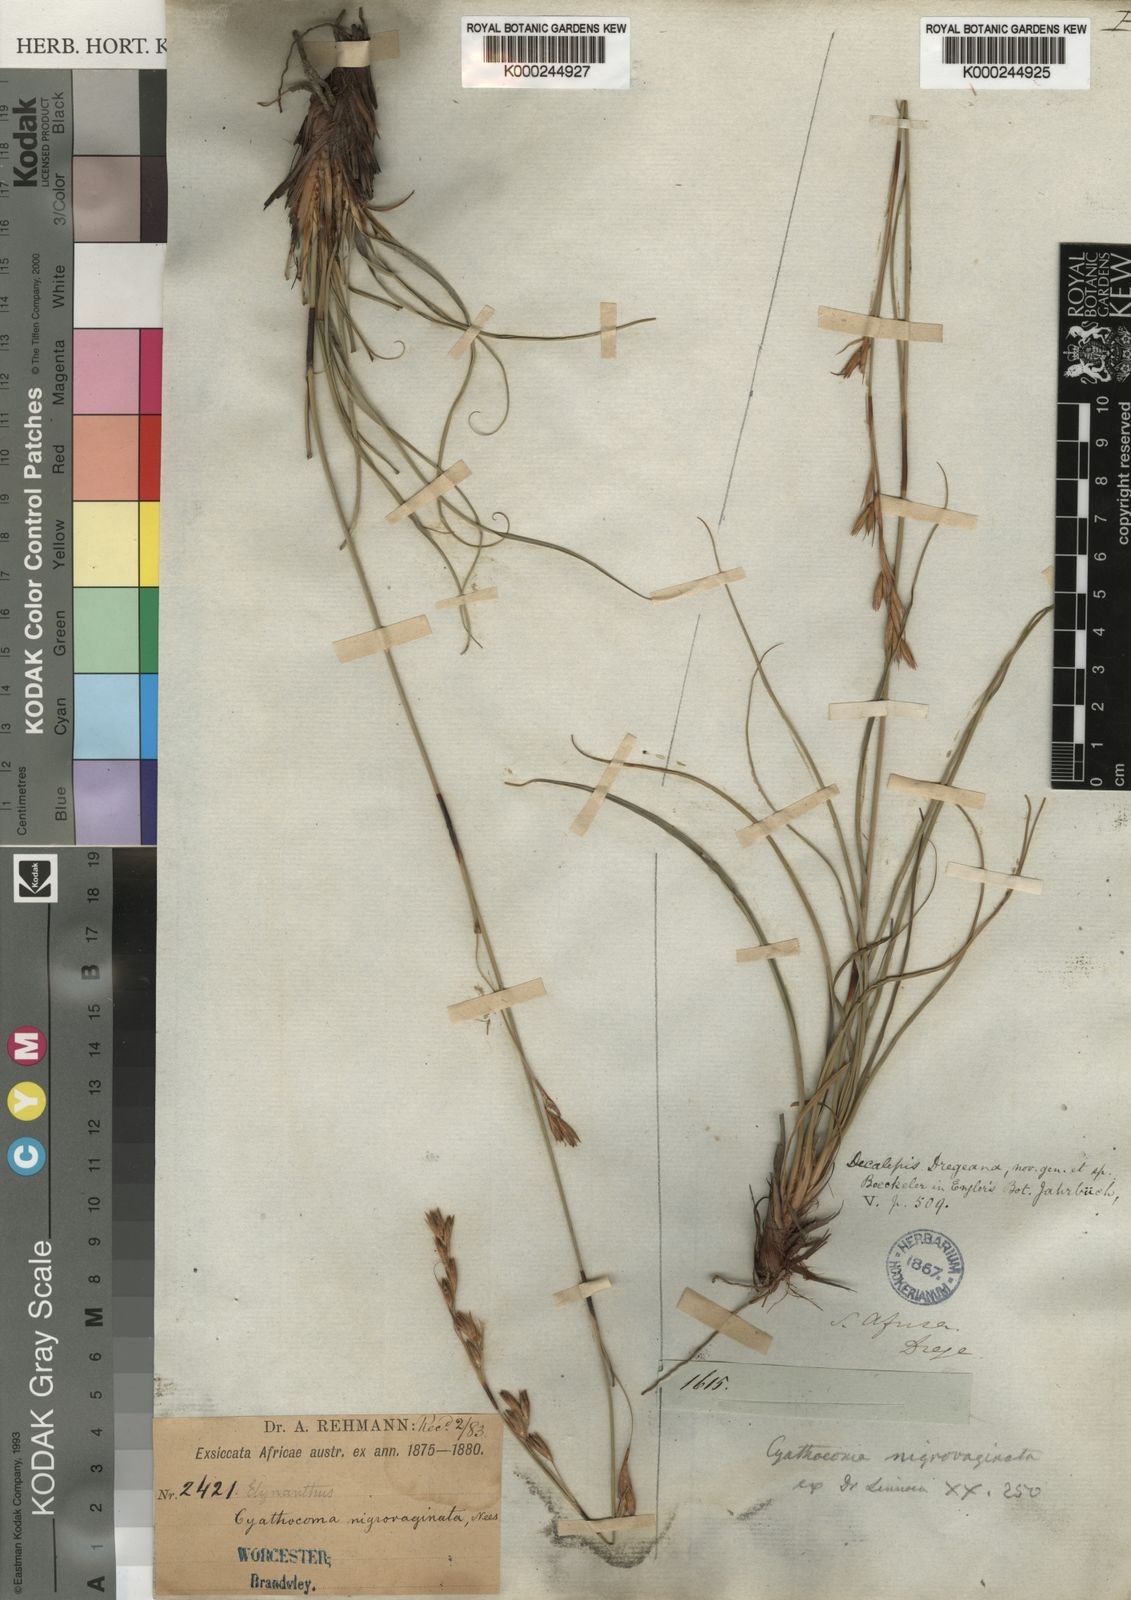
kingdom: Plantae
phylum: Tracheophyta
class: Liliopsida
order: Poales
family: Cyperaceae
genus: Tetraria
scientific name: Tetraria nigrovaginata
